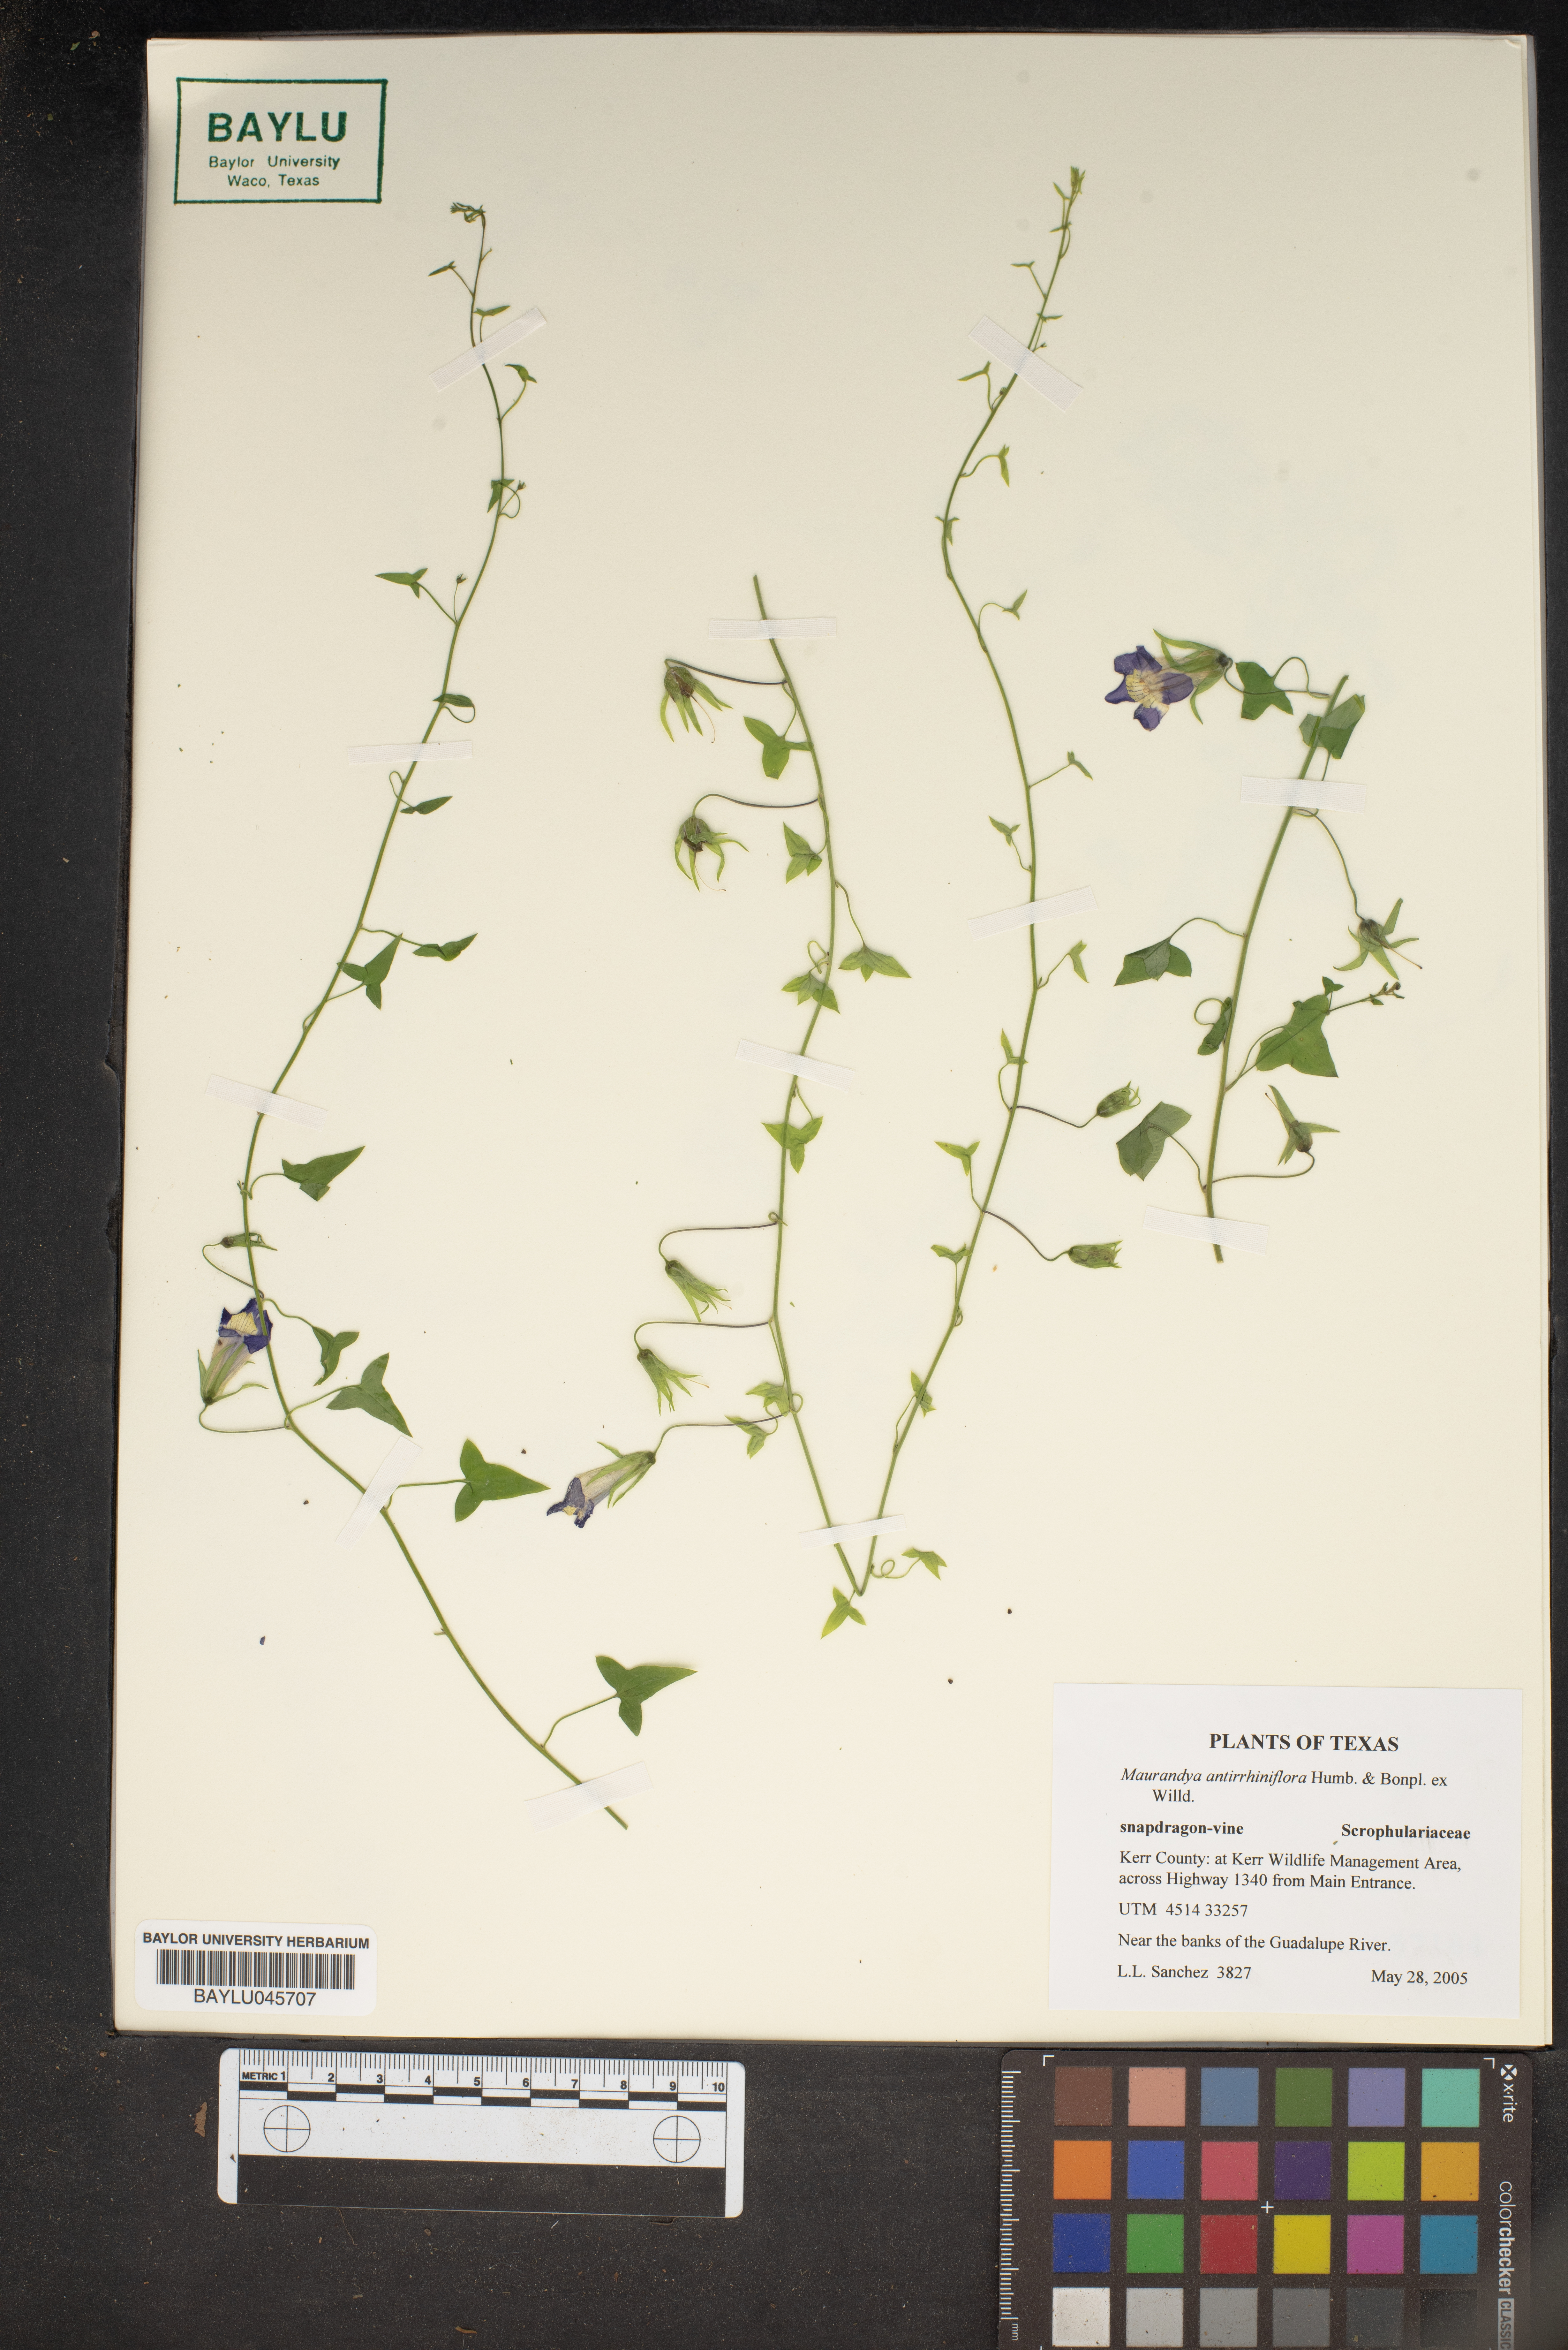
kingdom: Plantae
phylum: Tracheophyta
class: Magnoliopsida
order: Lamiales
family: Plantaginaceae
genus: Maurandella
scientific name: Maurandella antirrhiniflora
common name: Violet twining-snapdragon
